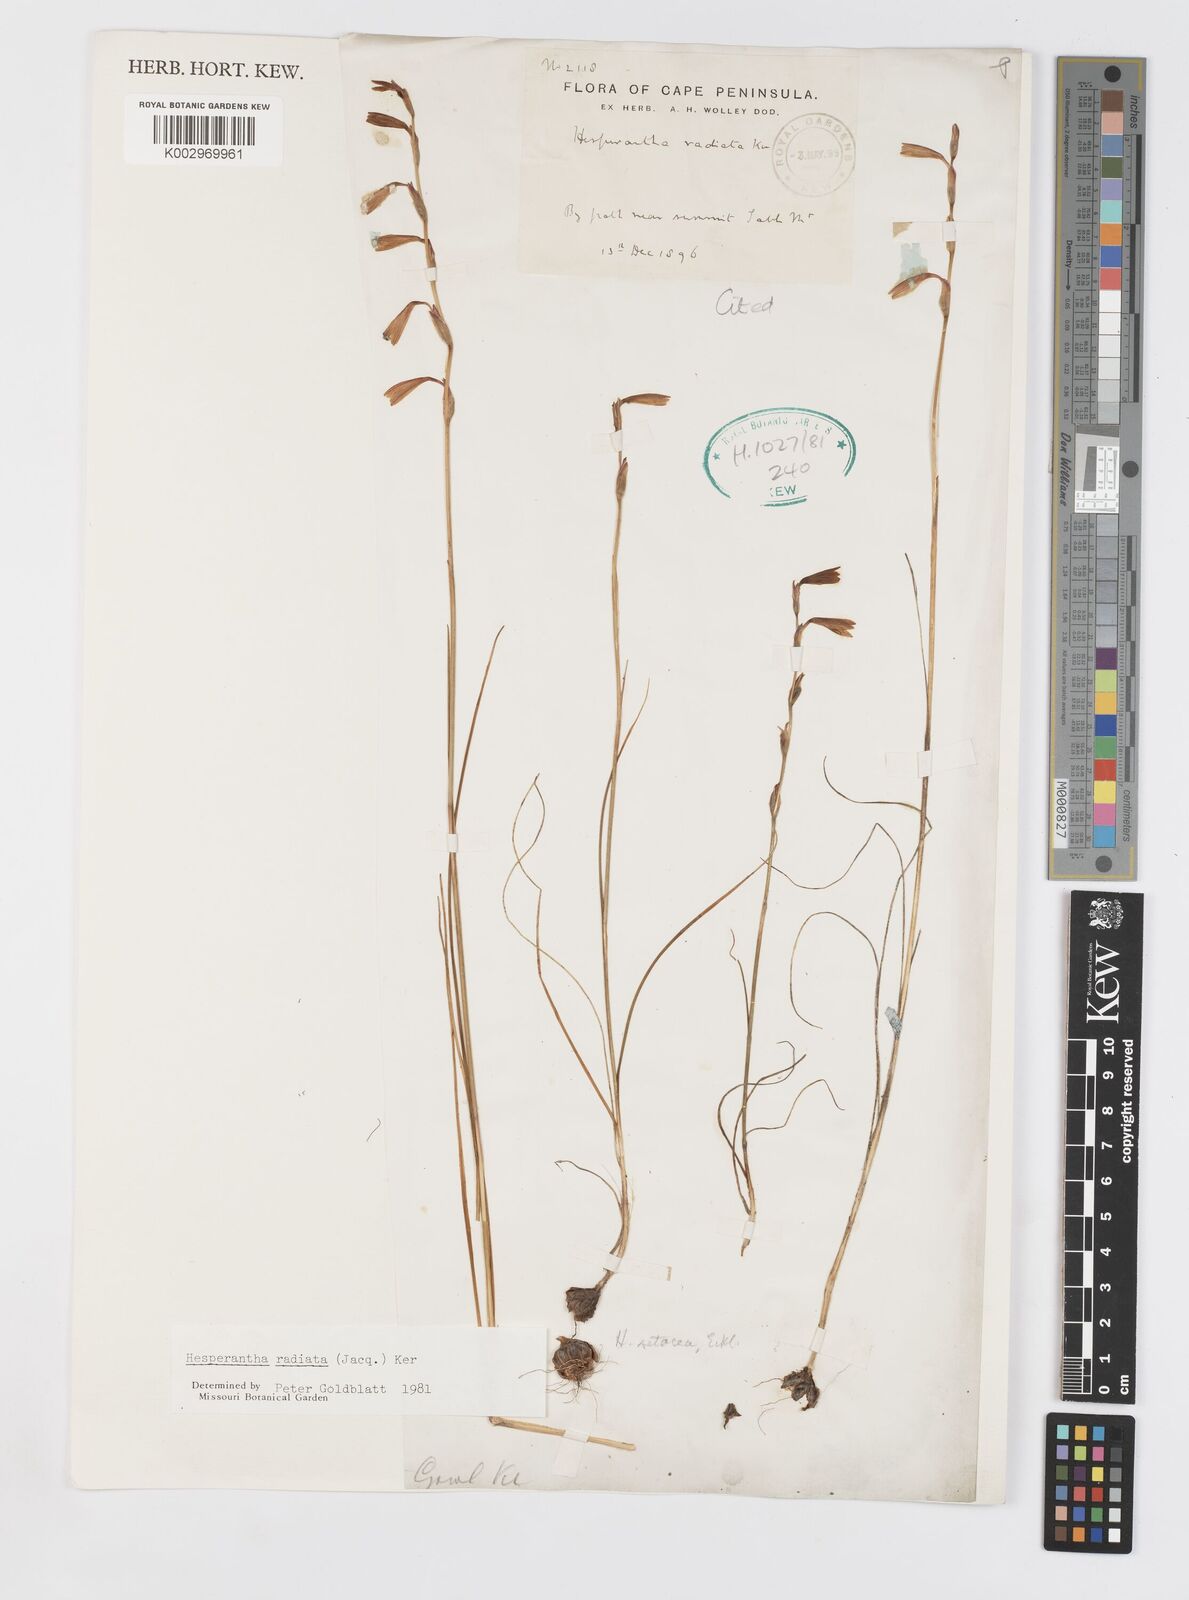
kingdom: Plantae
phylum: Tracheophyta
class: Liliopsida
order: Asparagales
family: Iridaceae
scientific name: Iridaceae
